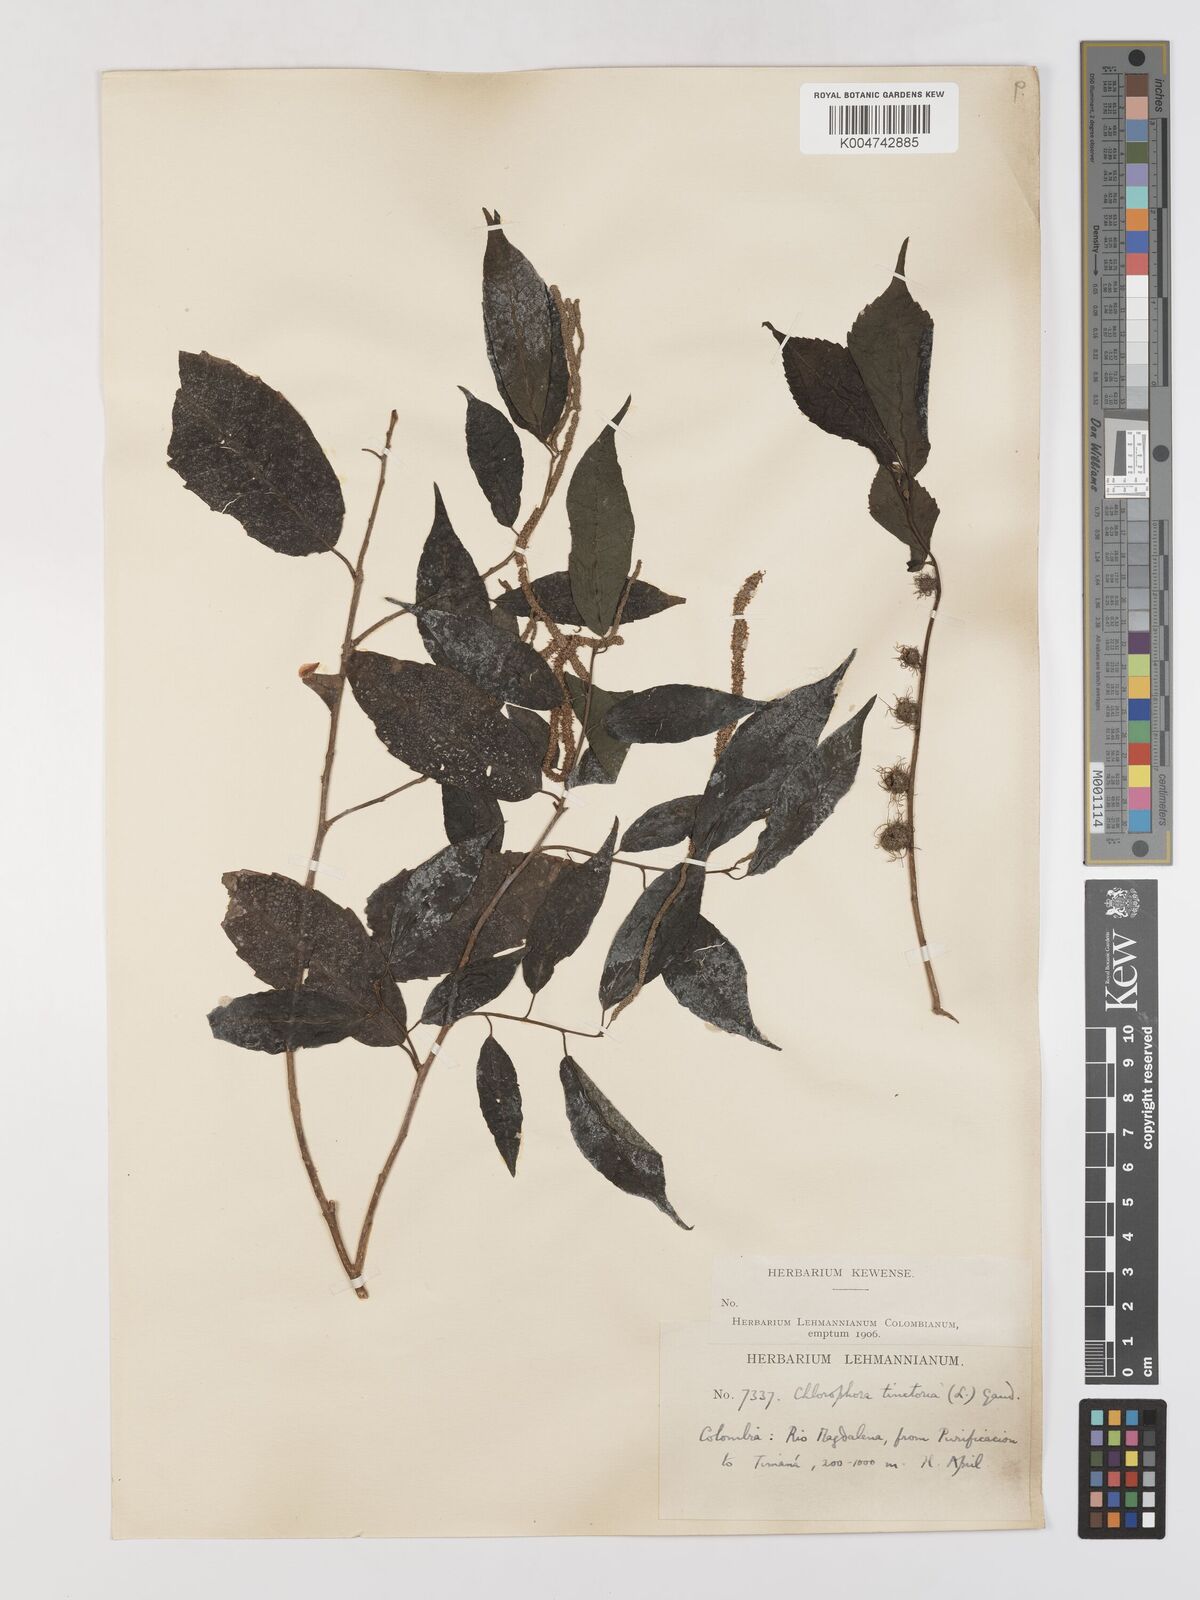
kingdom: Plantae
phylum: Tracheophyta
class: Magnoliopsida
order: Rosales
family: Moraceae
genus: Maclura
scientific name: Maclura tinctoria
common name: Old fustic
